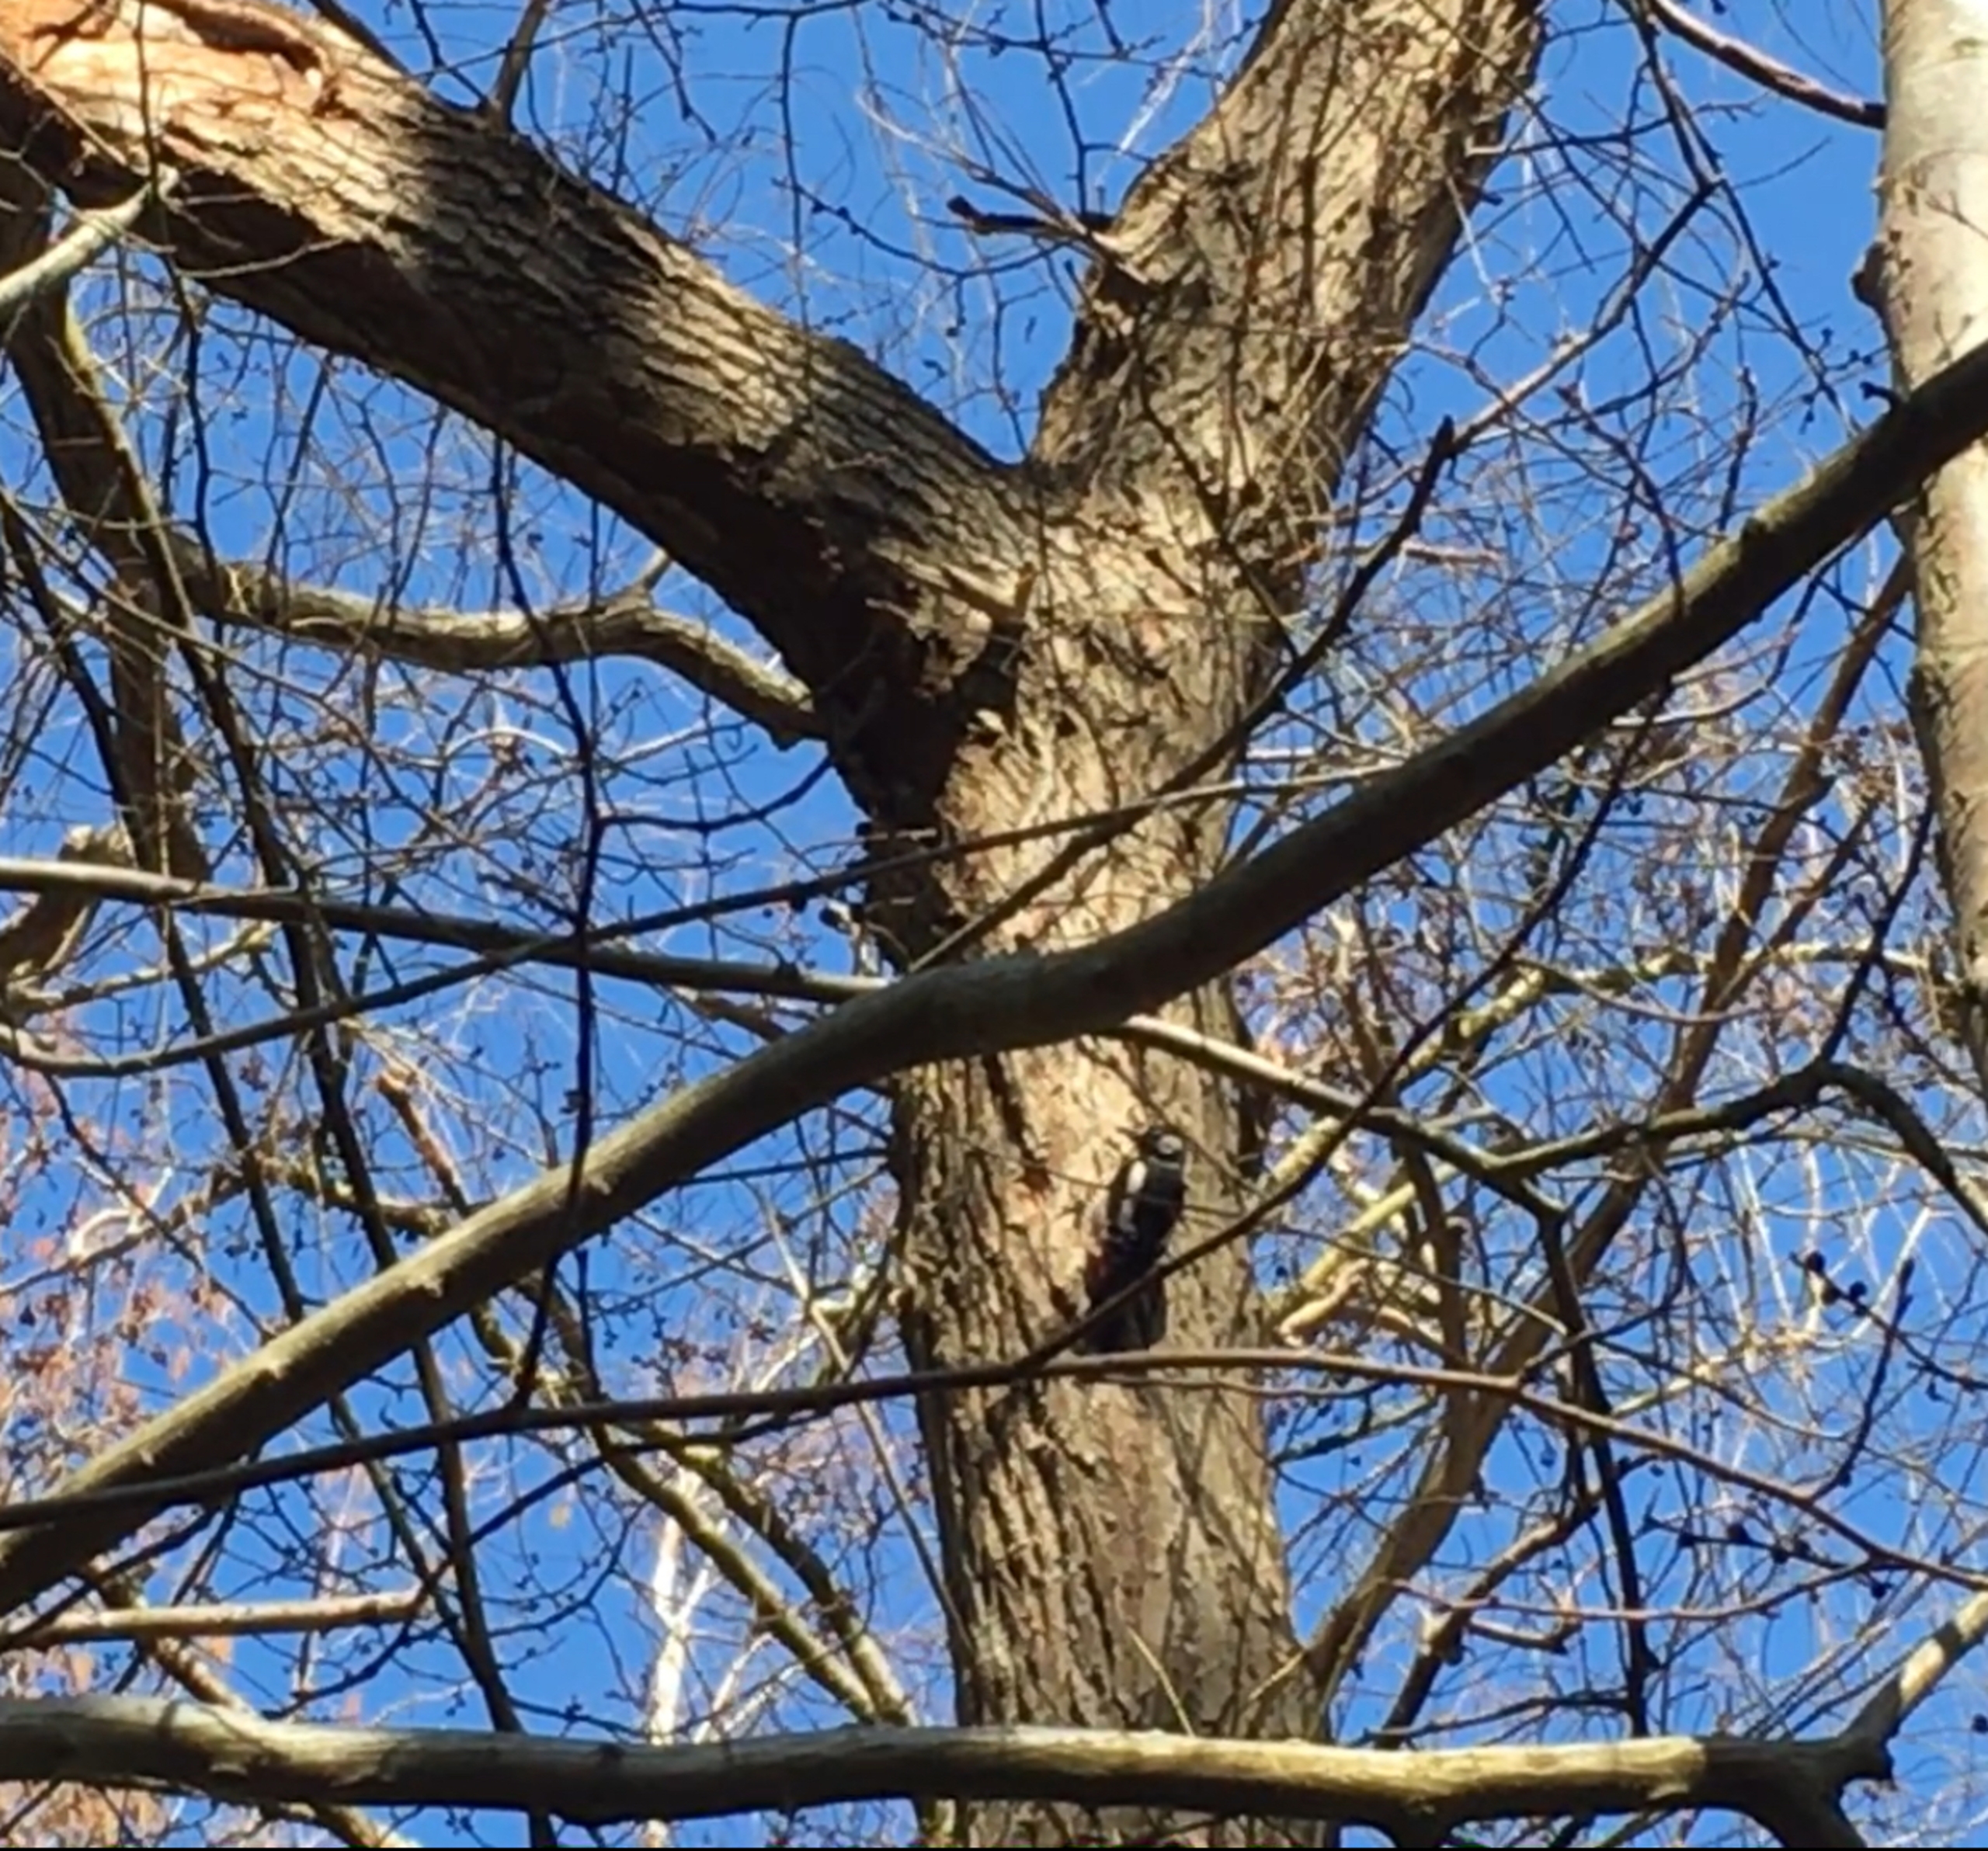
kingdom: Animalia
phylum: Chordata
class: Aves
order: Piciformes
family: Picidae
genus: Dendrocopos
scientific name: Dendrocopos major
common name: Stor flagspætte
